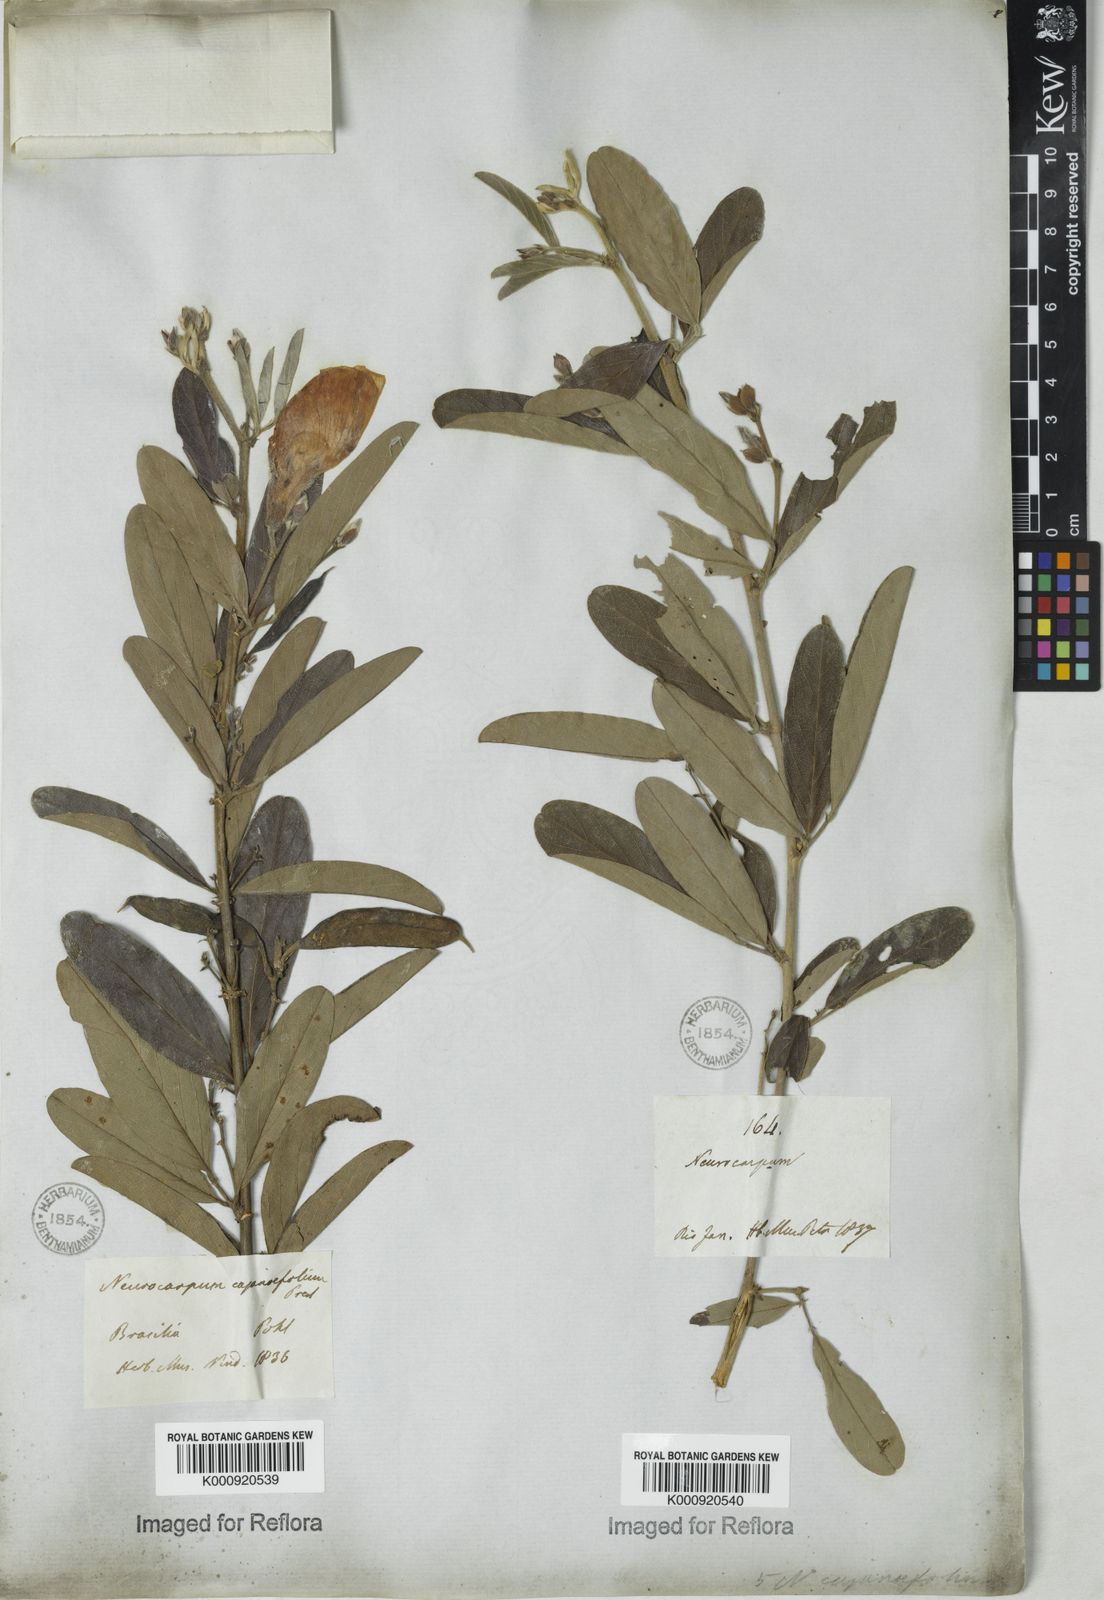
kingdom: Plantae
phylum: Tracheophyta
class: Magnoliopsida
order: Fabales
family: Fabaceae
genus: Clitoria
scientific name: Clitoria laurifolia
